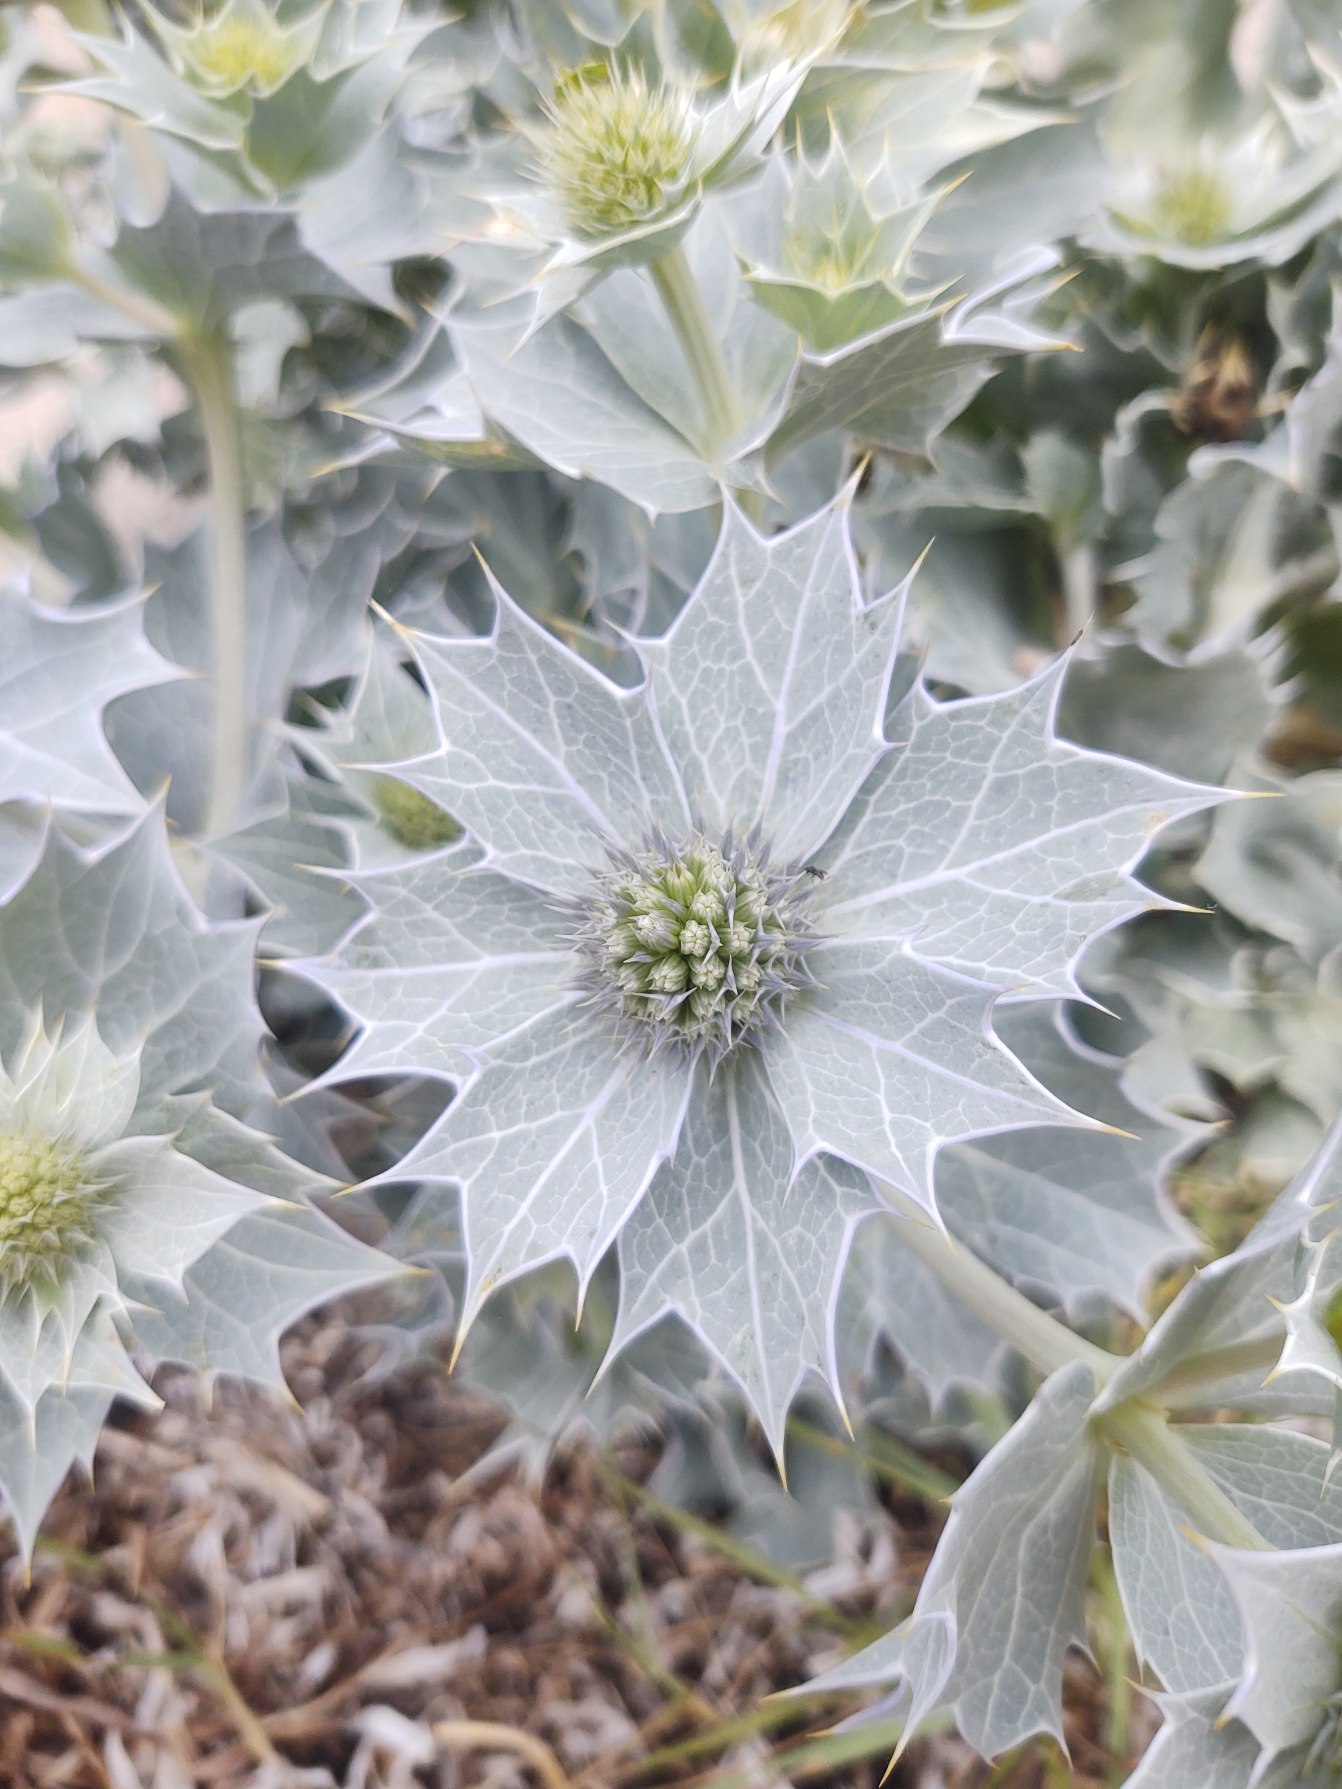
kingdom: Plantae
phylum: Tracheophyta
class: Magnoliopsida
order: Apiales
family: Apiaceae
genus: Eryngium
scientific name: Eryngium maritimum
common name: Strand-mandstro
